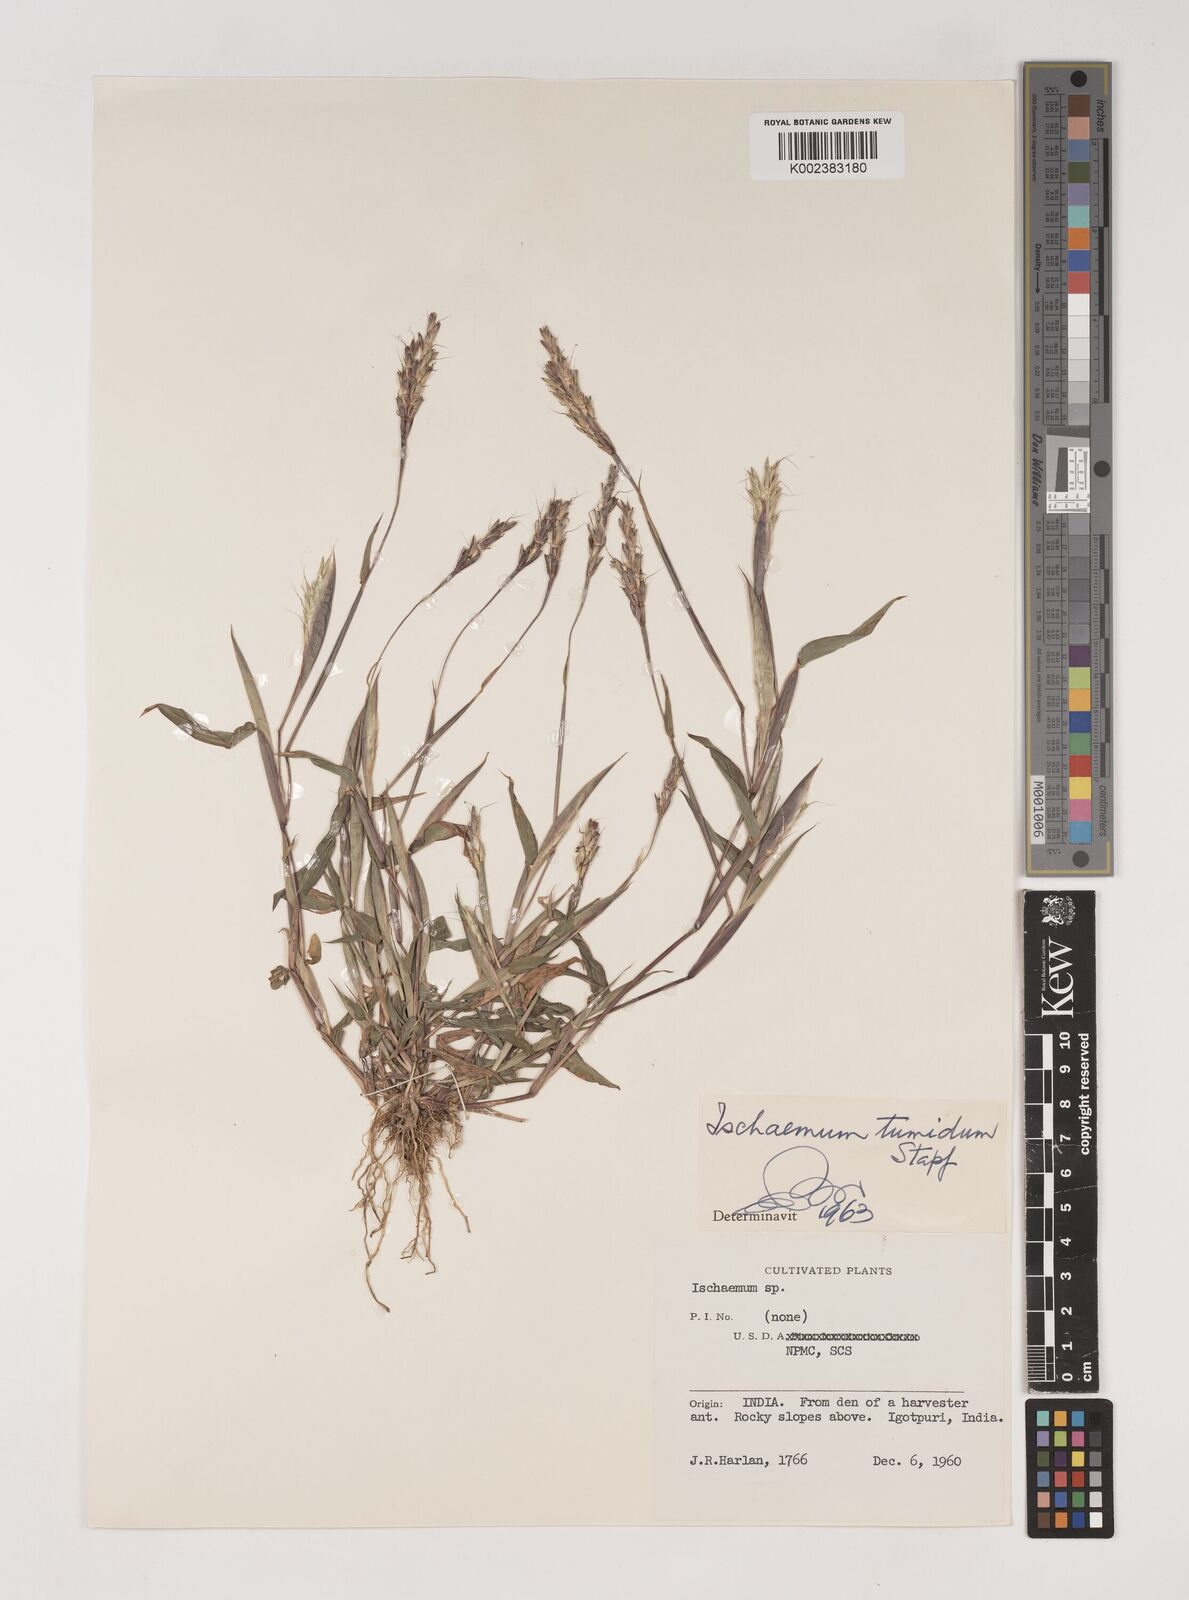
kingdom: Plantae
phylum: Tracheophyta
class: Liliopsida
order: Poales
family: Poaceae
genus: Ischaemum
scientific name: Ischaemum tumidum
